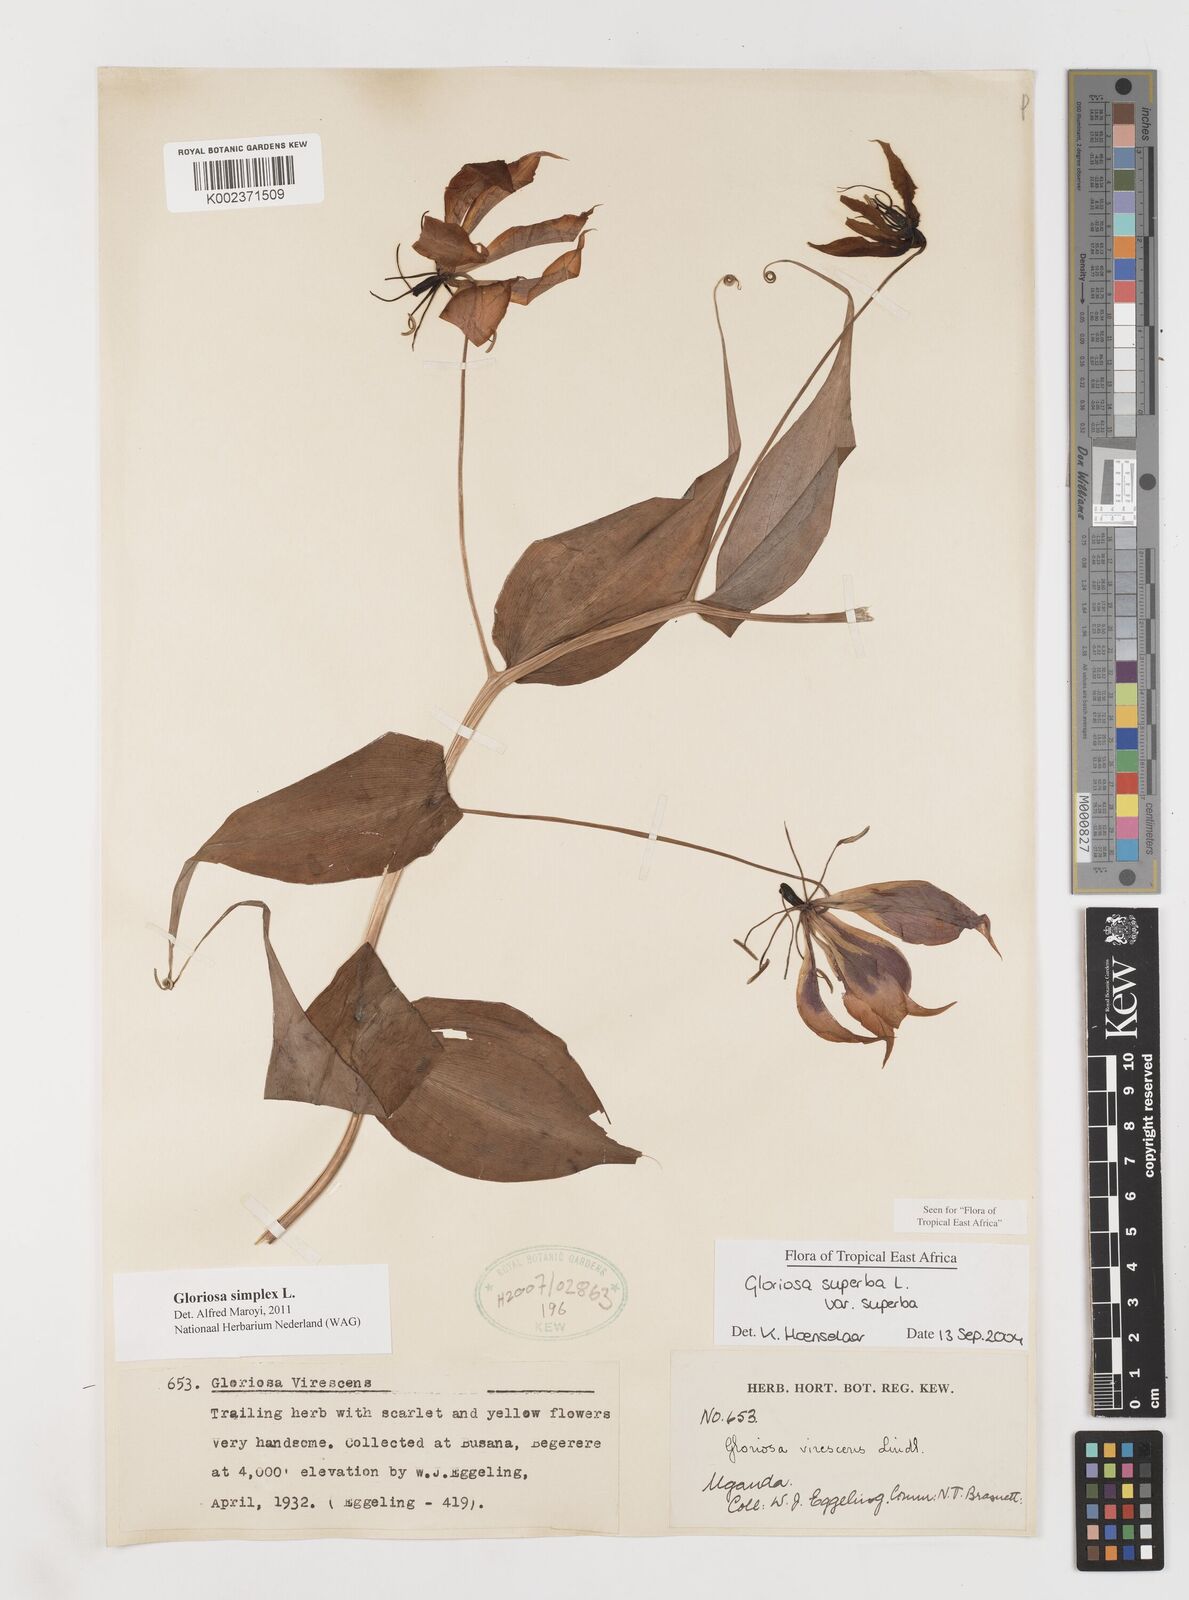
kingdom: Plantae
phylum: Tracheophyta
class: Liliopsida
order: Liliales
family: Colchicaceae
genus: Gloriosa
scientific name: Gloriosa simplex
